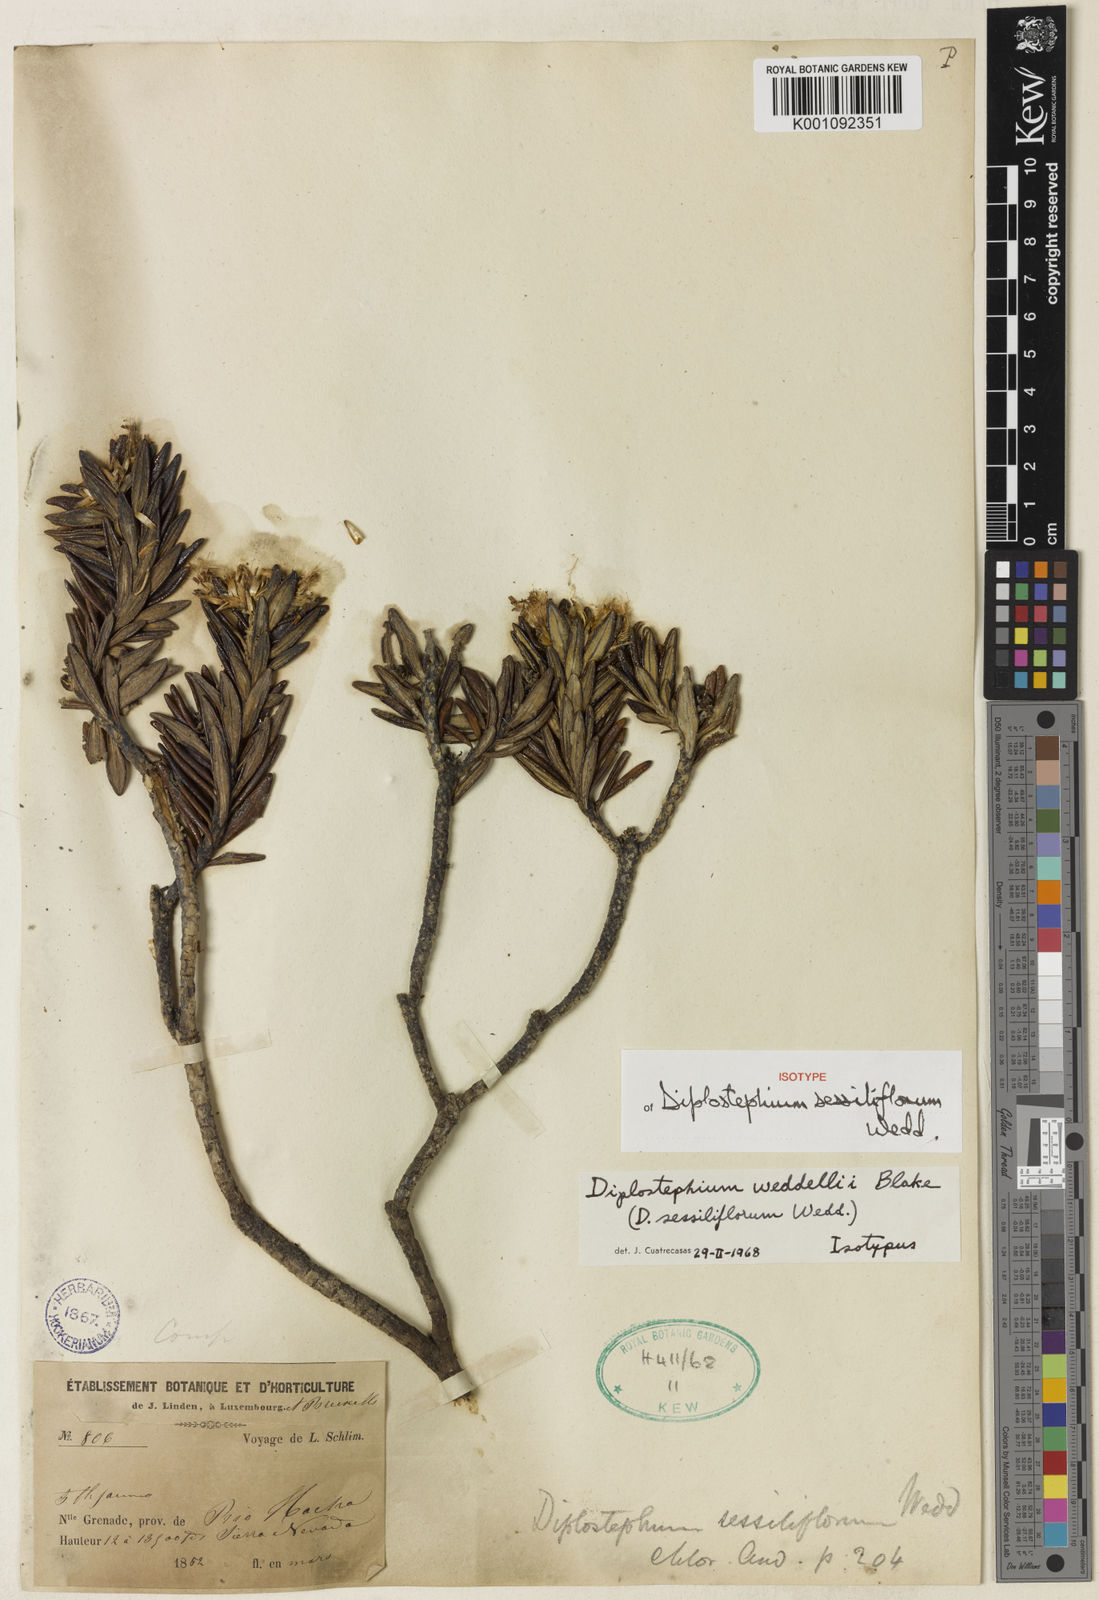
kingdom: Plantae
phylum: Tracheophyta
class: Magnoliopsida
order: Asterales
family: Asteraceae
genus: Linochilus
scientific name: Linochilus weddellii
